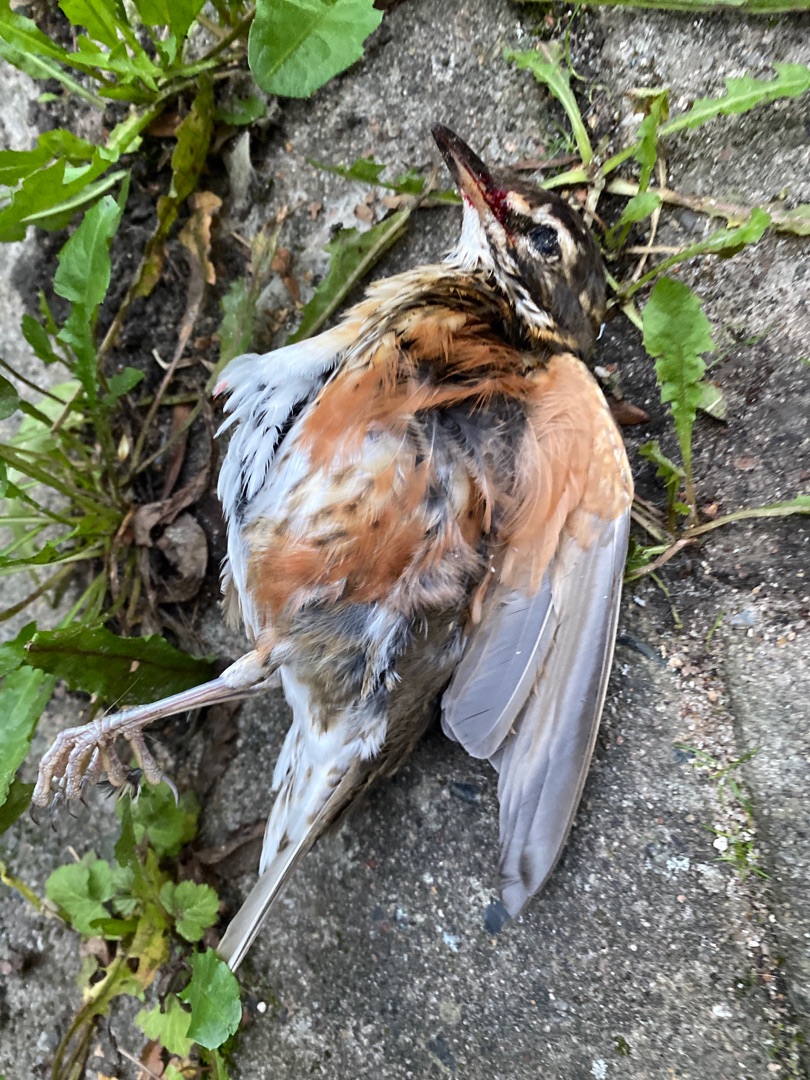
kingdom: Animalia
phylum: Chordata
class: Aves
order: Passeriformes
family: Turdidae
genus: Turdus
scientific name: Turdus iliacus
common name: Vindrossel
